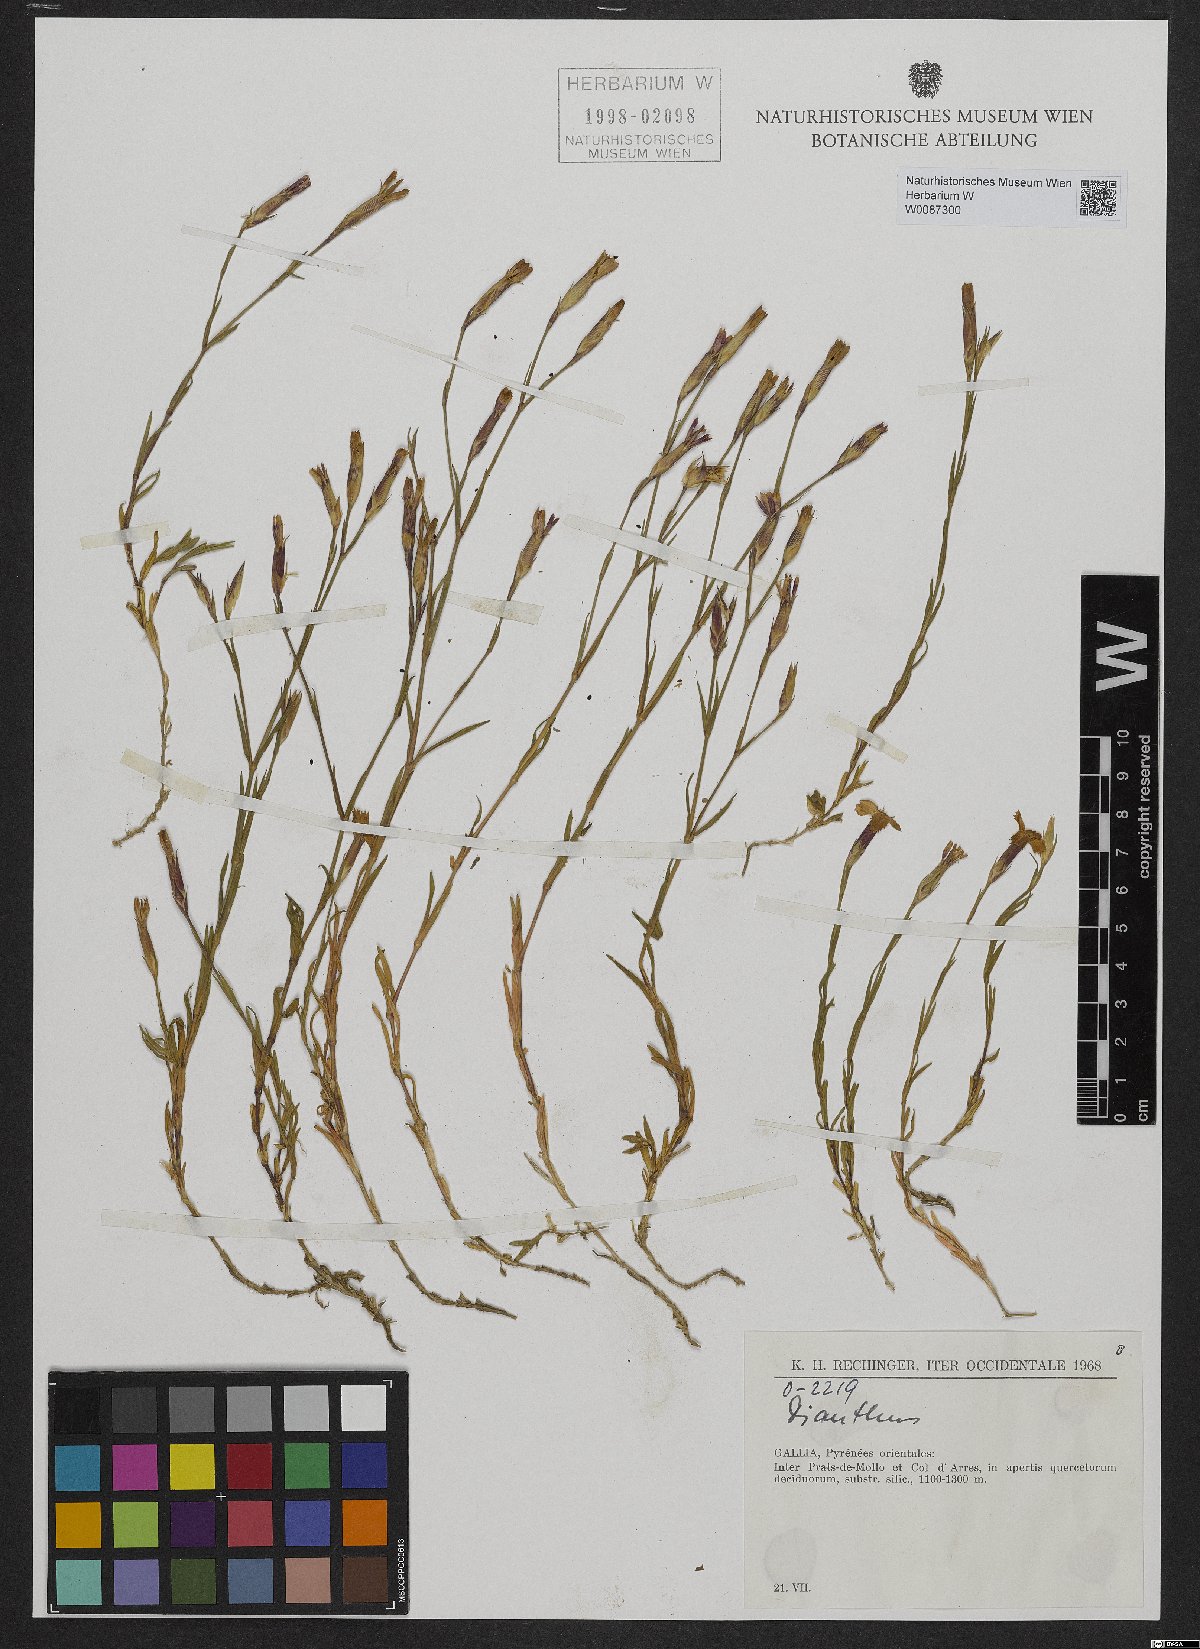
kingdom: Plantae
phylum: Tracheophyta
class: Magnoliopsida
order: Caryophyllales
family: Caryophyllaceae
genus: Dianthus
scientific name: Dianthus
